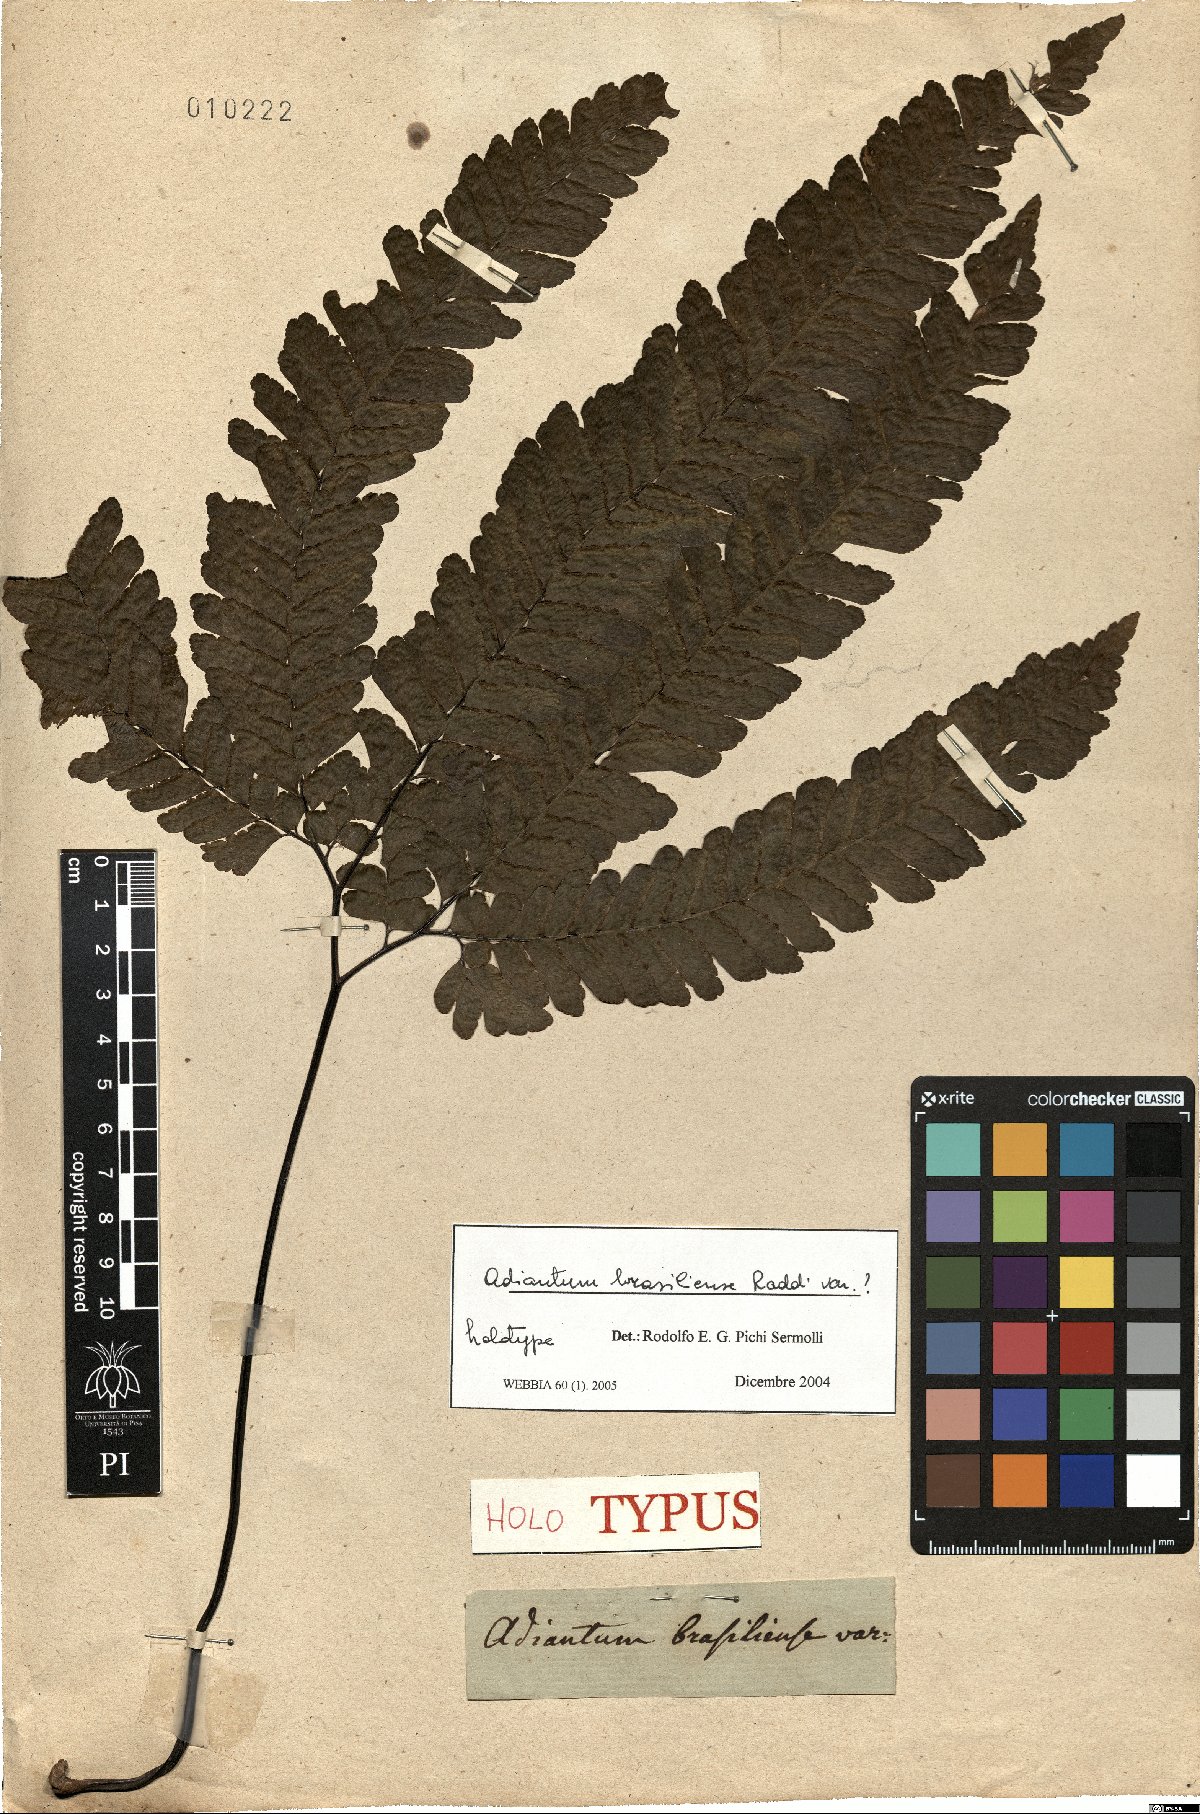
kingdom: Plantae
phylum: Tracheophyta
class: Polypodiopsida
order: Polypodiales
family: Pteridaceae
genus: Adiantum
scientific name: Adiantum
